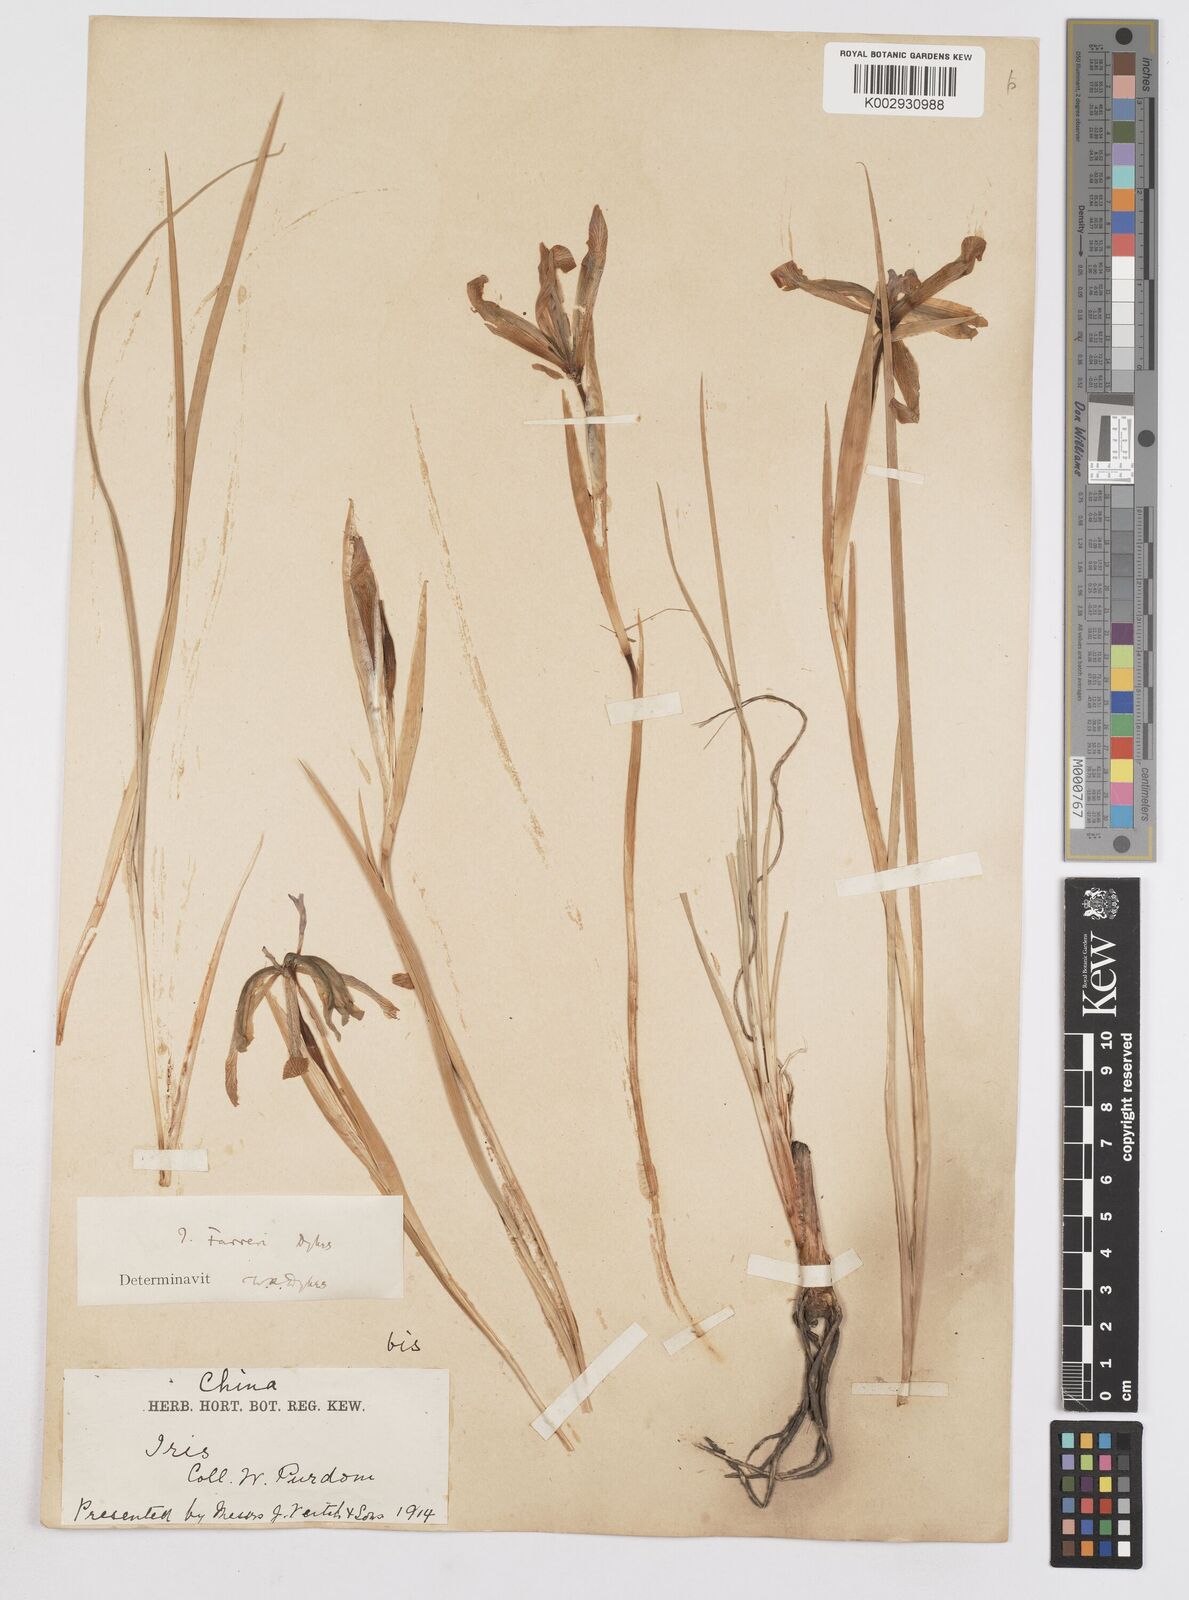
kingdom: Plantae
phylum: Tracheophyta
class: Liliopsida
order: Asparagales
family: Iridaceae
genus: Iris
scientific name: Iris farreri
